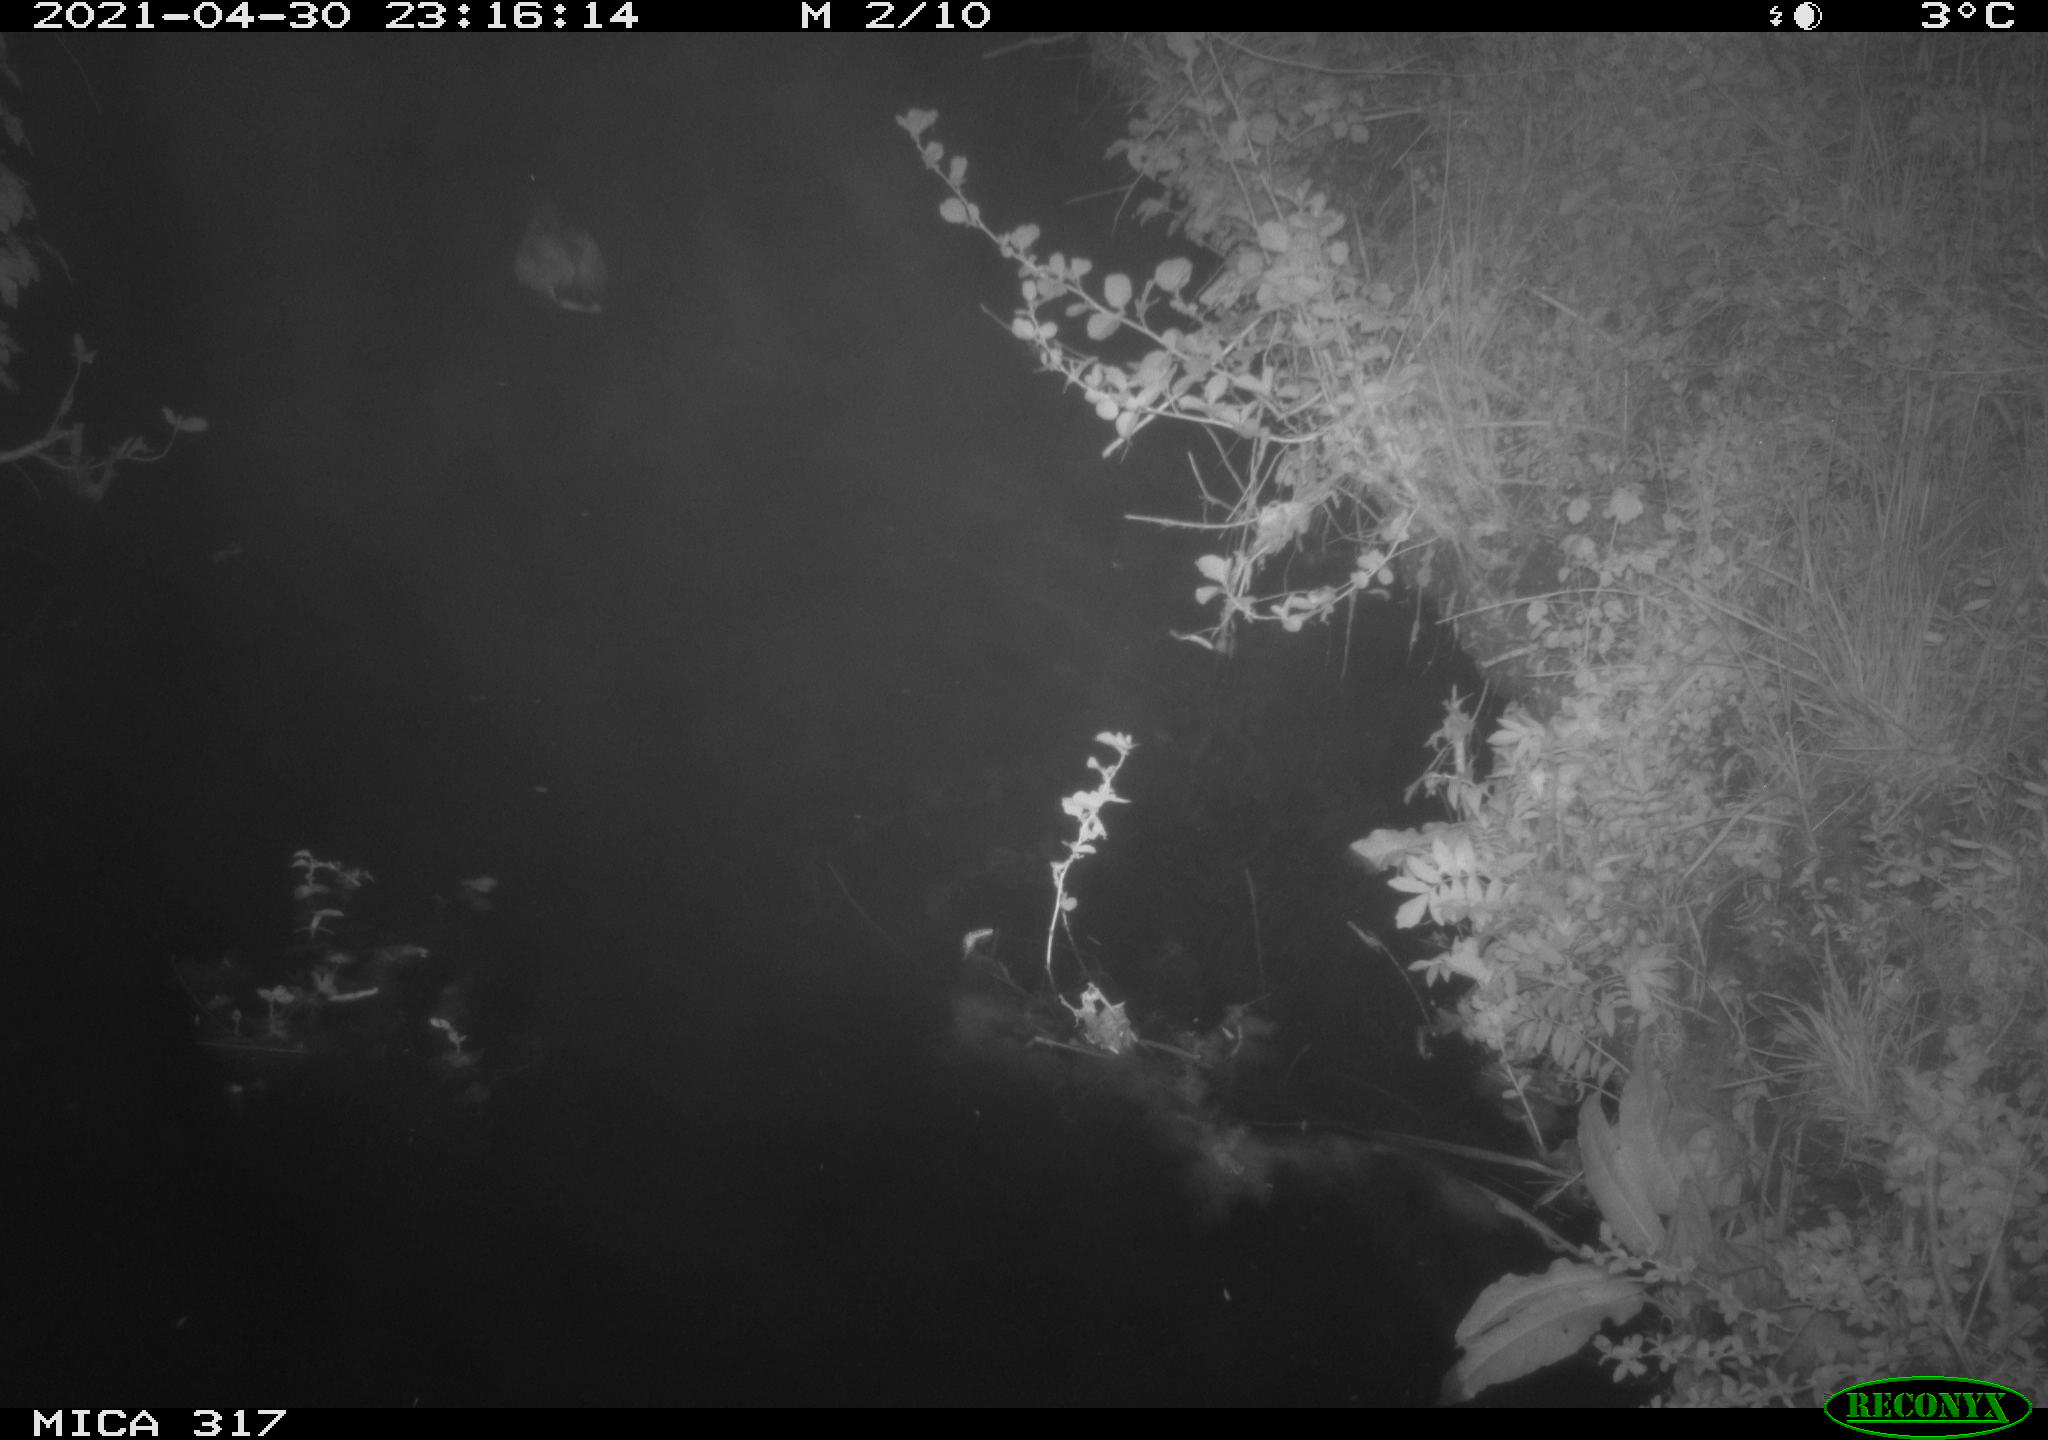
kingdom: Animalia
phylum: Chordata
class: Aves
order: Anseriformes
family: Anatidae
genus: Anas
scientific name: Anas
